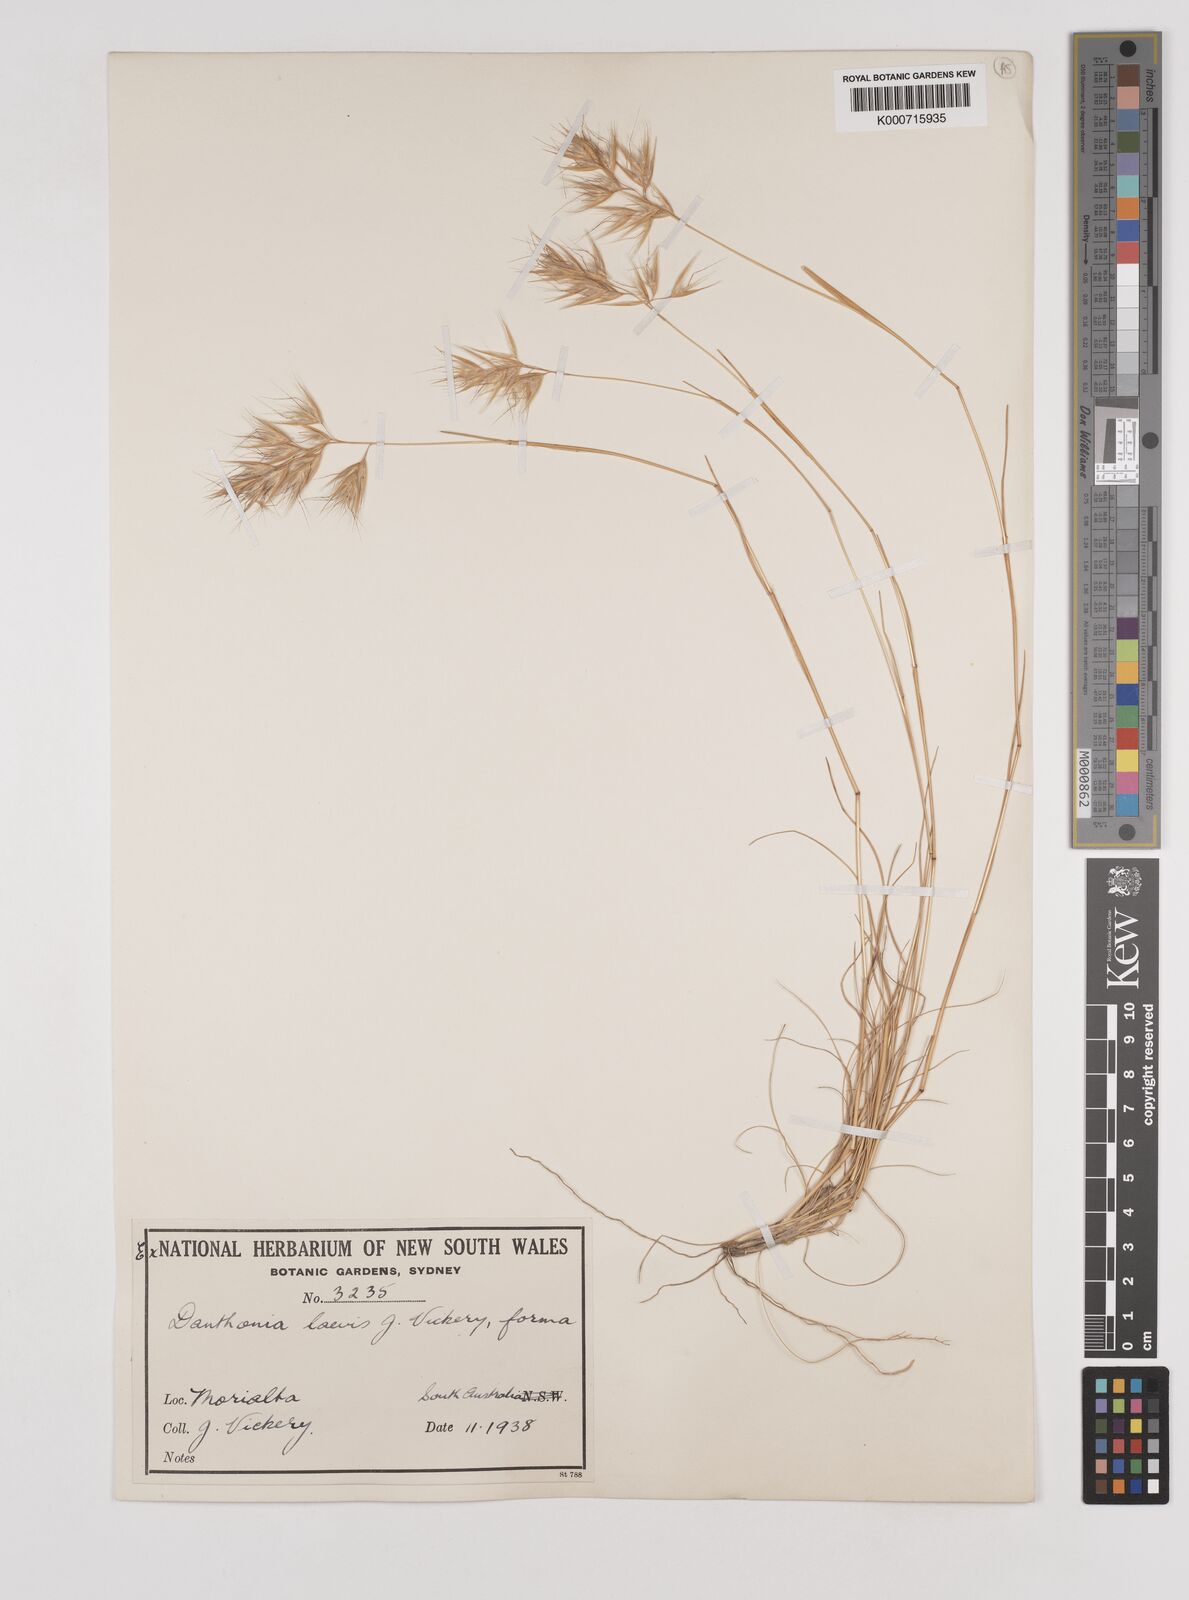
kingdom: Plantae
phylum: Tracheophyta
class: Liliopsida
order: Poales
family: Poaceae
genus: Rytidosperma
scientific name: Rytidosperma laeve
